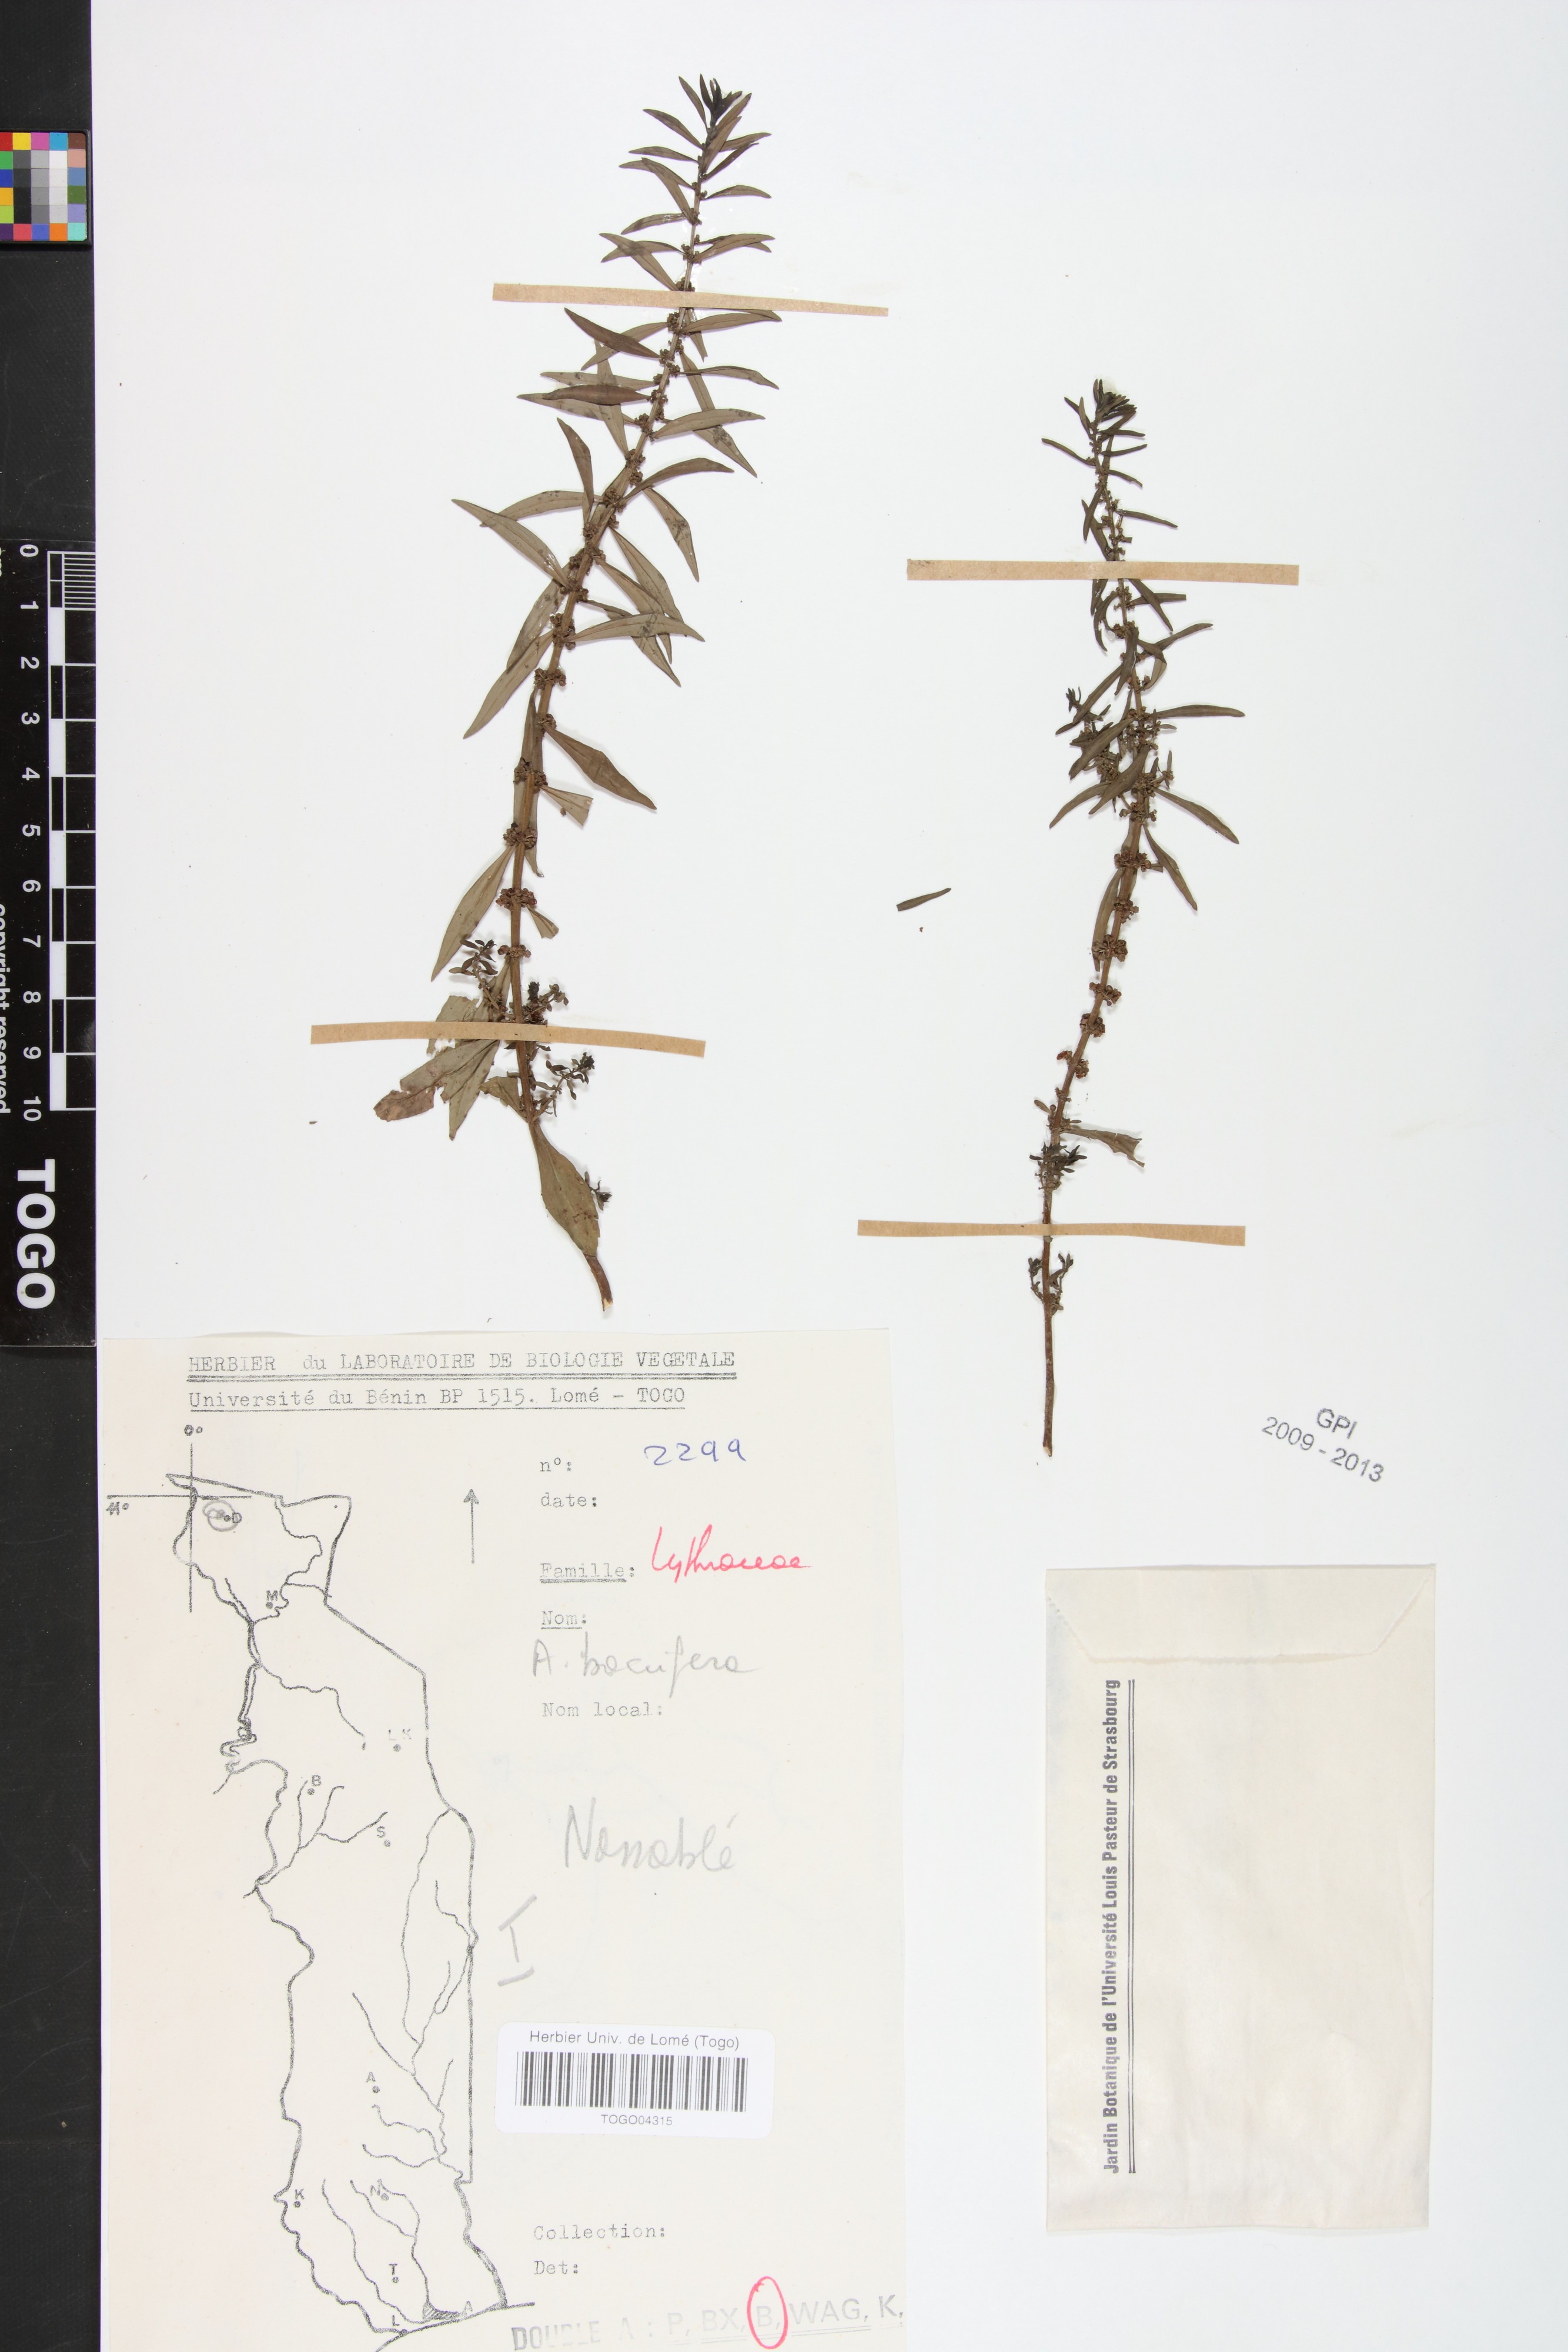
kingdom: Plantae
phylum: Tracheophyta
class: Magnoliopsida
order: Myrtales
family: Lythraceae
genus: Ammannia
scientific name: Ammannia baccifera
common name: Blistering ammania
